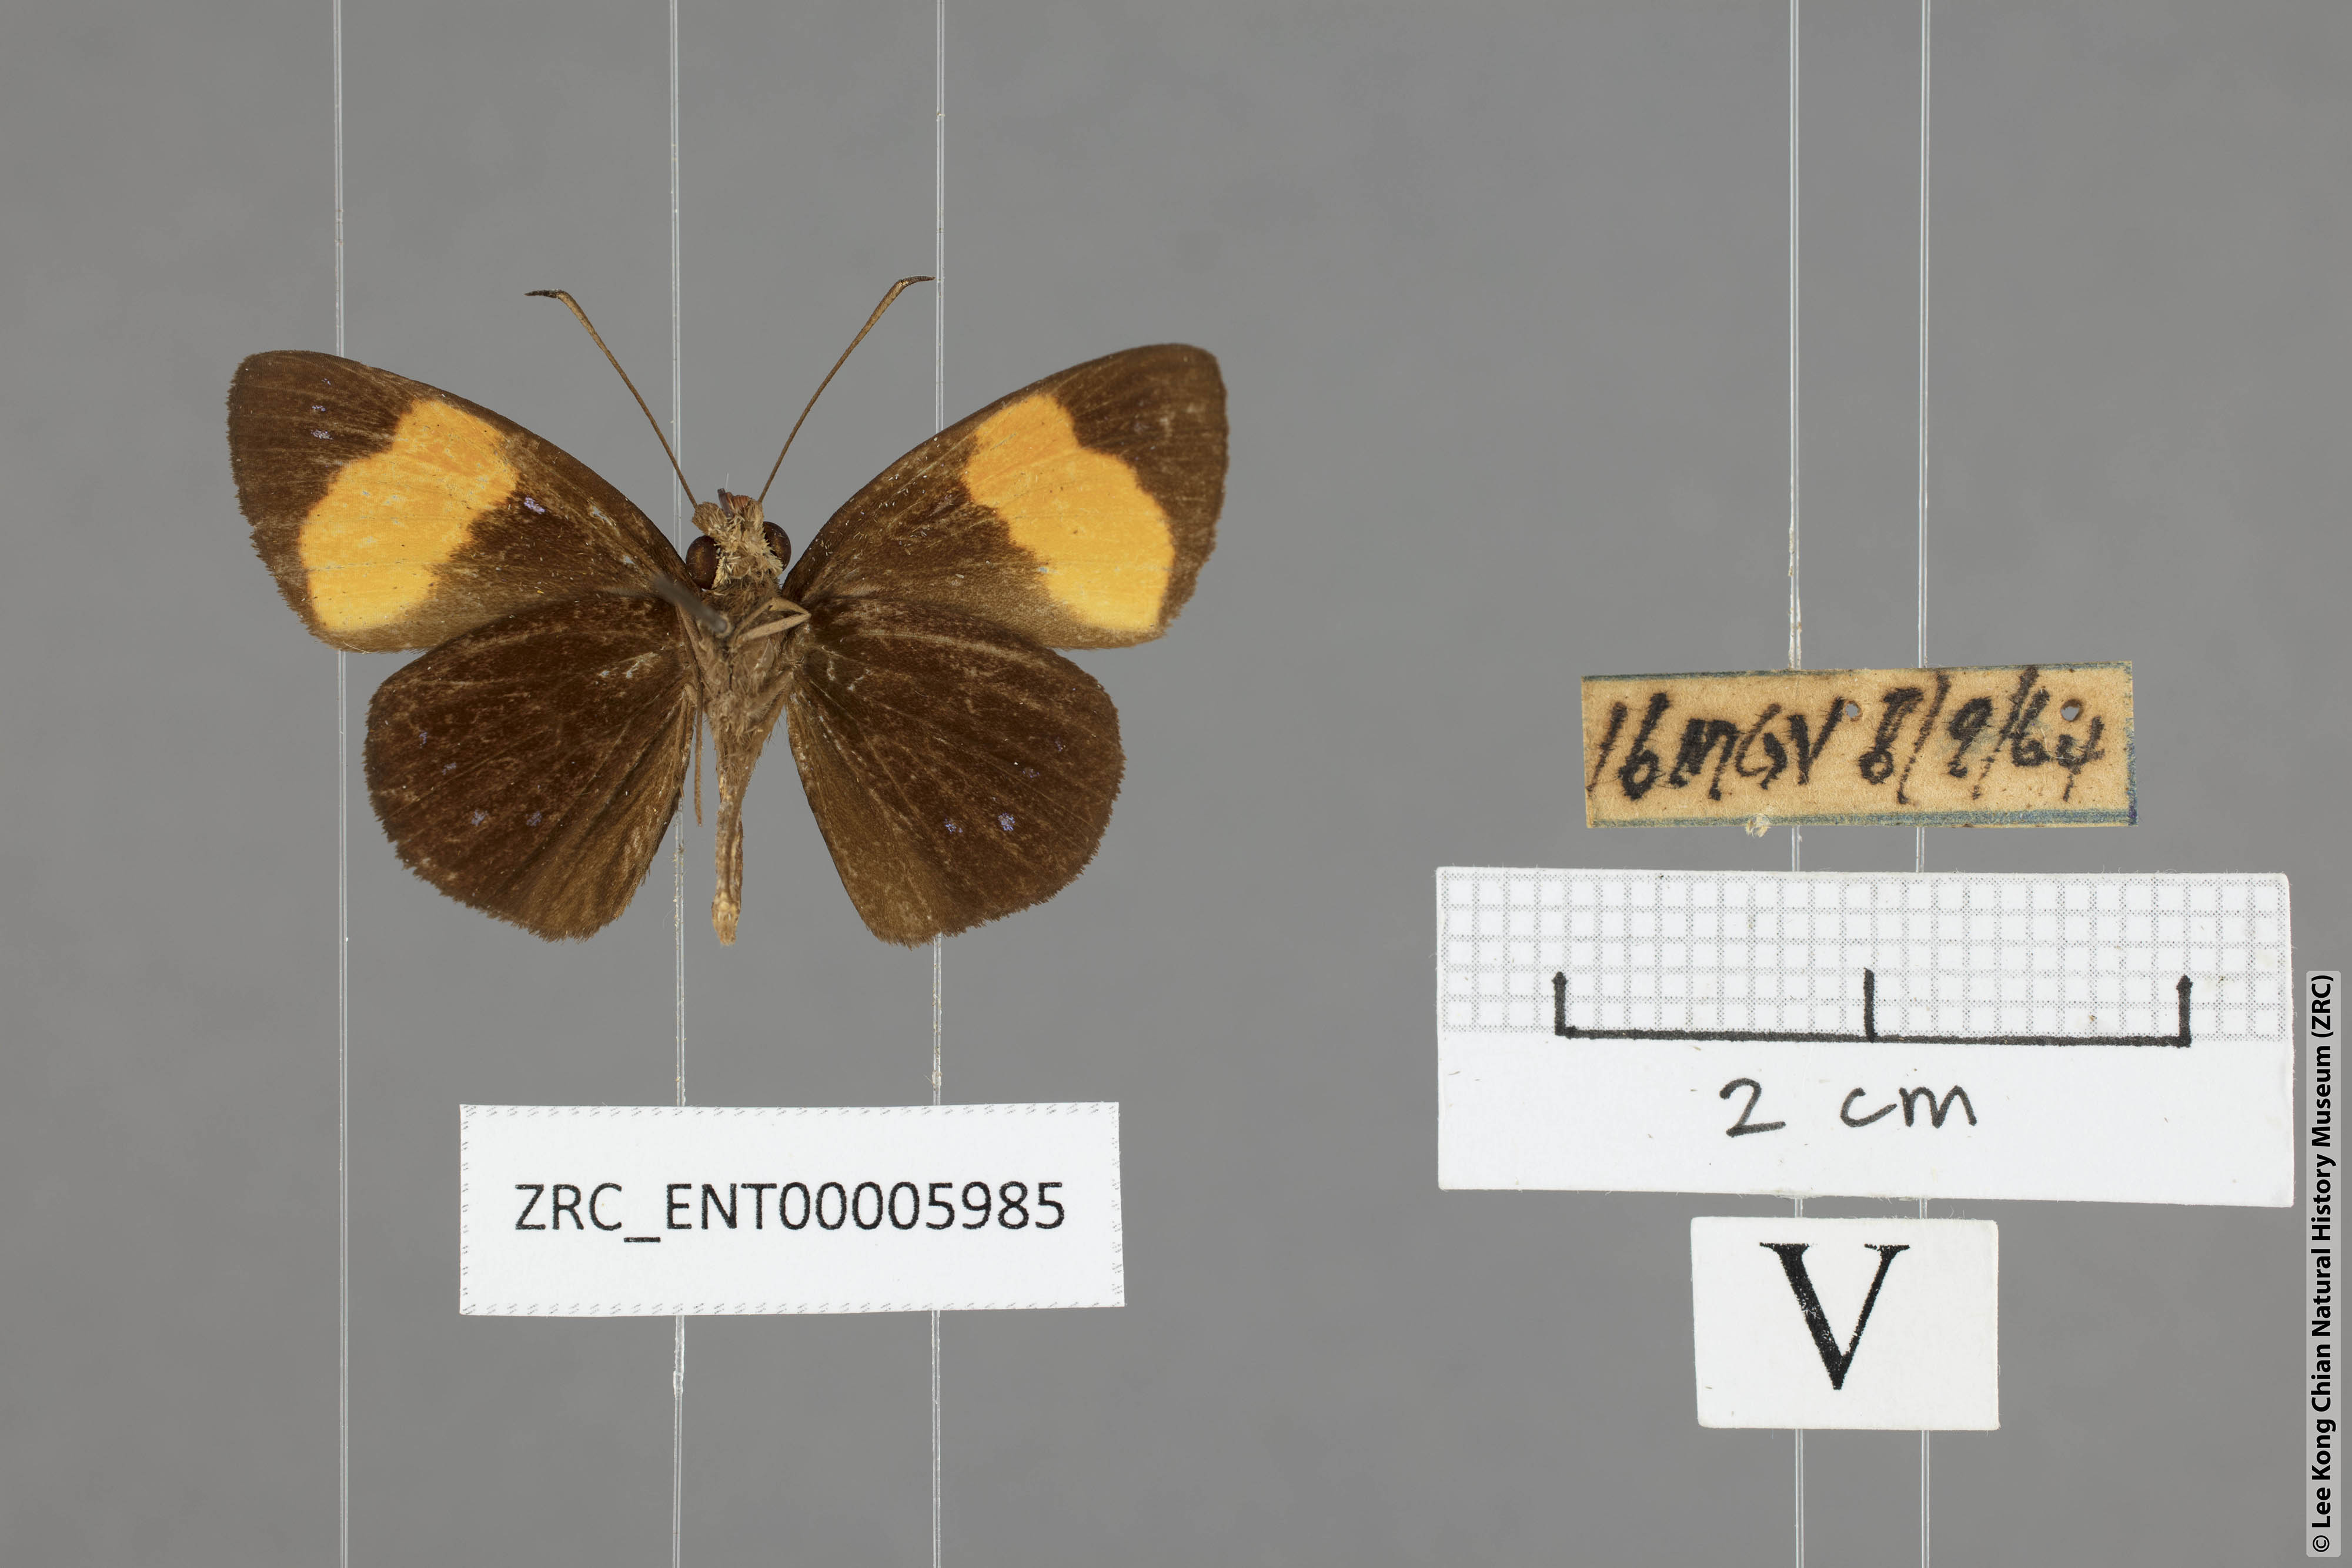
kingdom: Animalia
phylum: Arthropoda
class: Insecta
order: Lepidoptera
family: Hesperiidae
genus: Ancistroides
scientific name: Ancistroides gemmifer
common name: Gem demon
